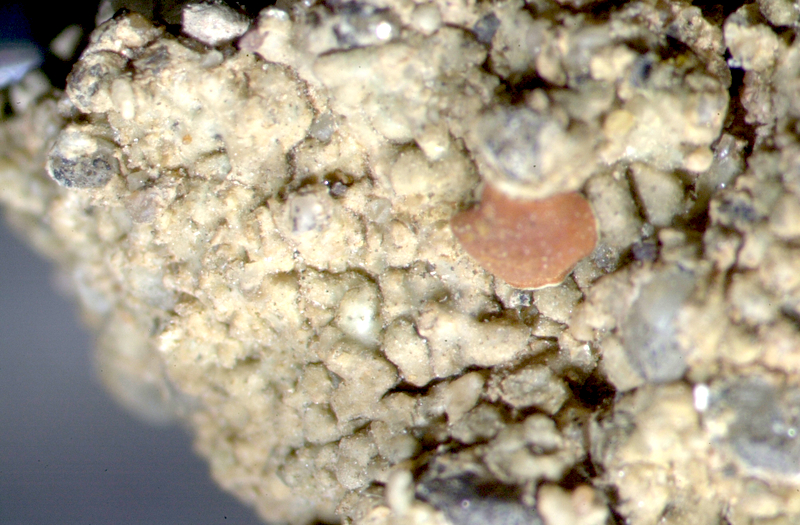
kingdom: Fungi
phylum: Ascomycota
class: Lecanoromycetes
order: Teloschistales
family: Teloschistaceae
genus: Caloplaca
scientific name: Caloplaca
